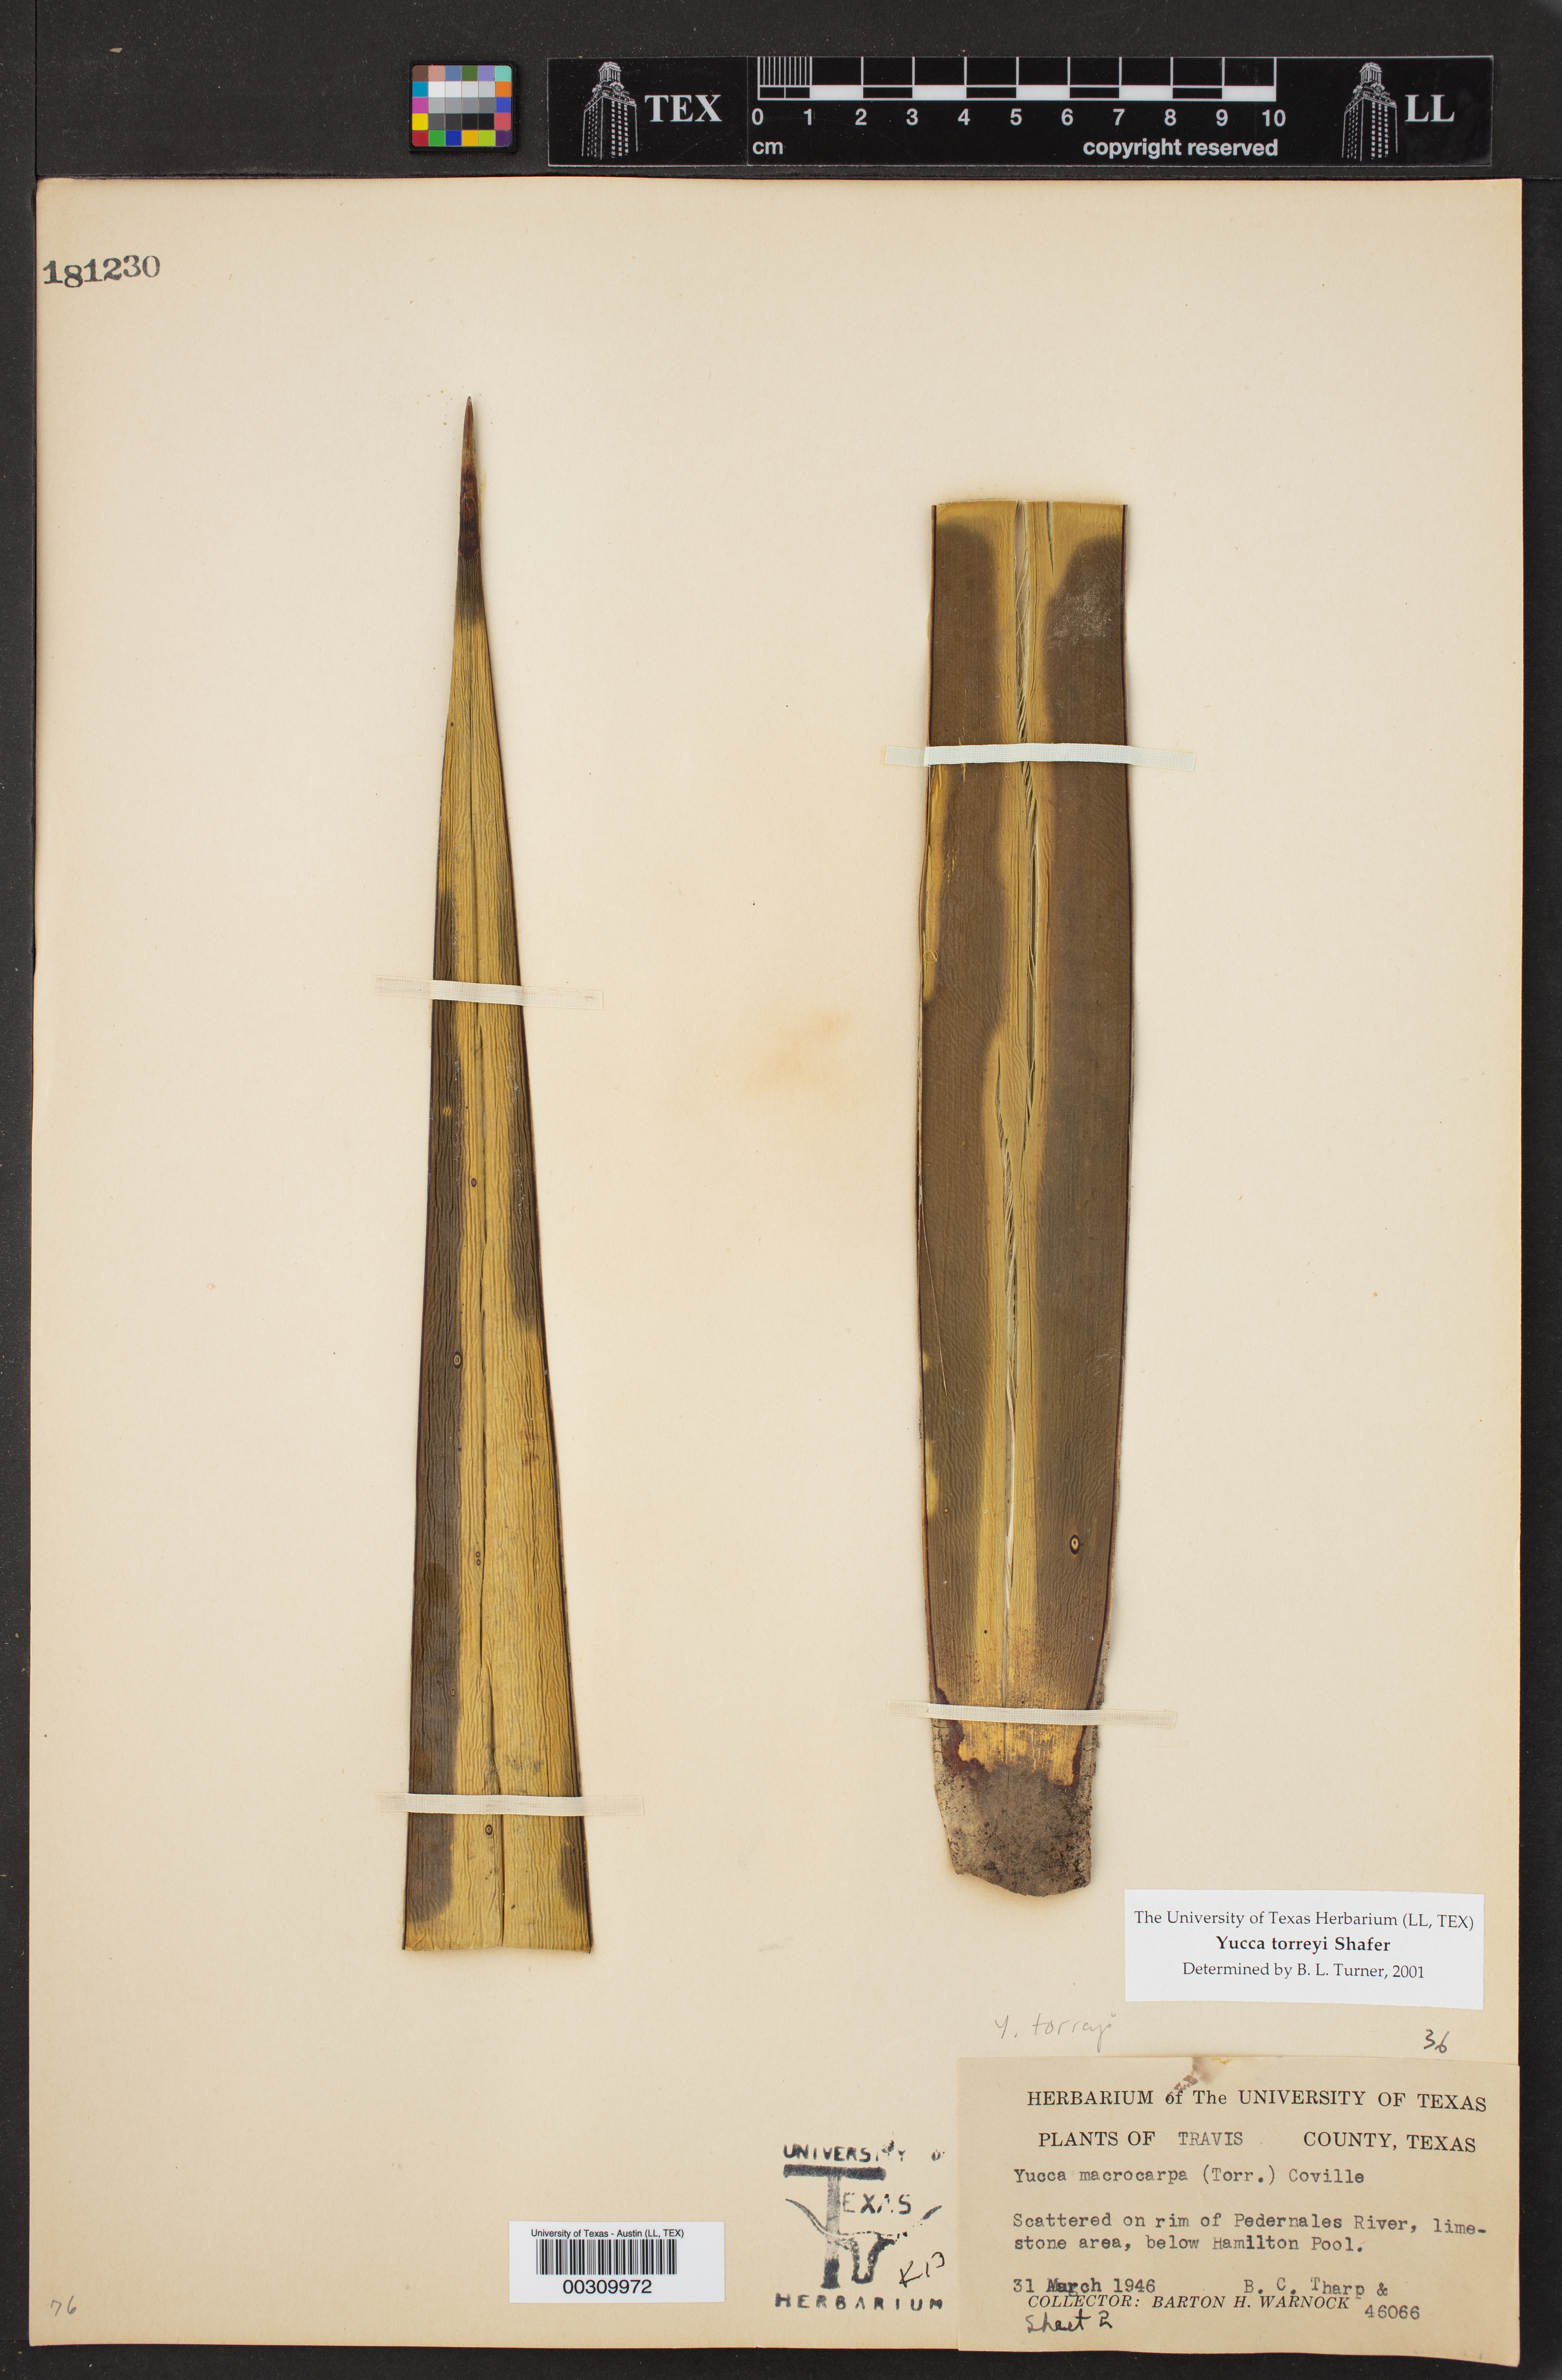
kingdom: Plantae
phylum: Tracheophyta
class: Liliopsida
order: Asparagales
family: Asparagaceae
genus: Yucca
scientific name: Yucca treculiana
